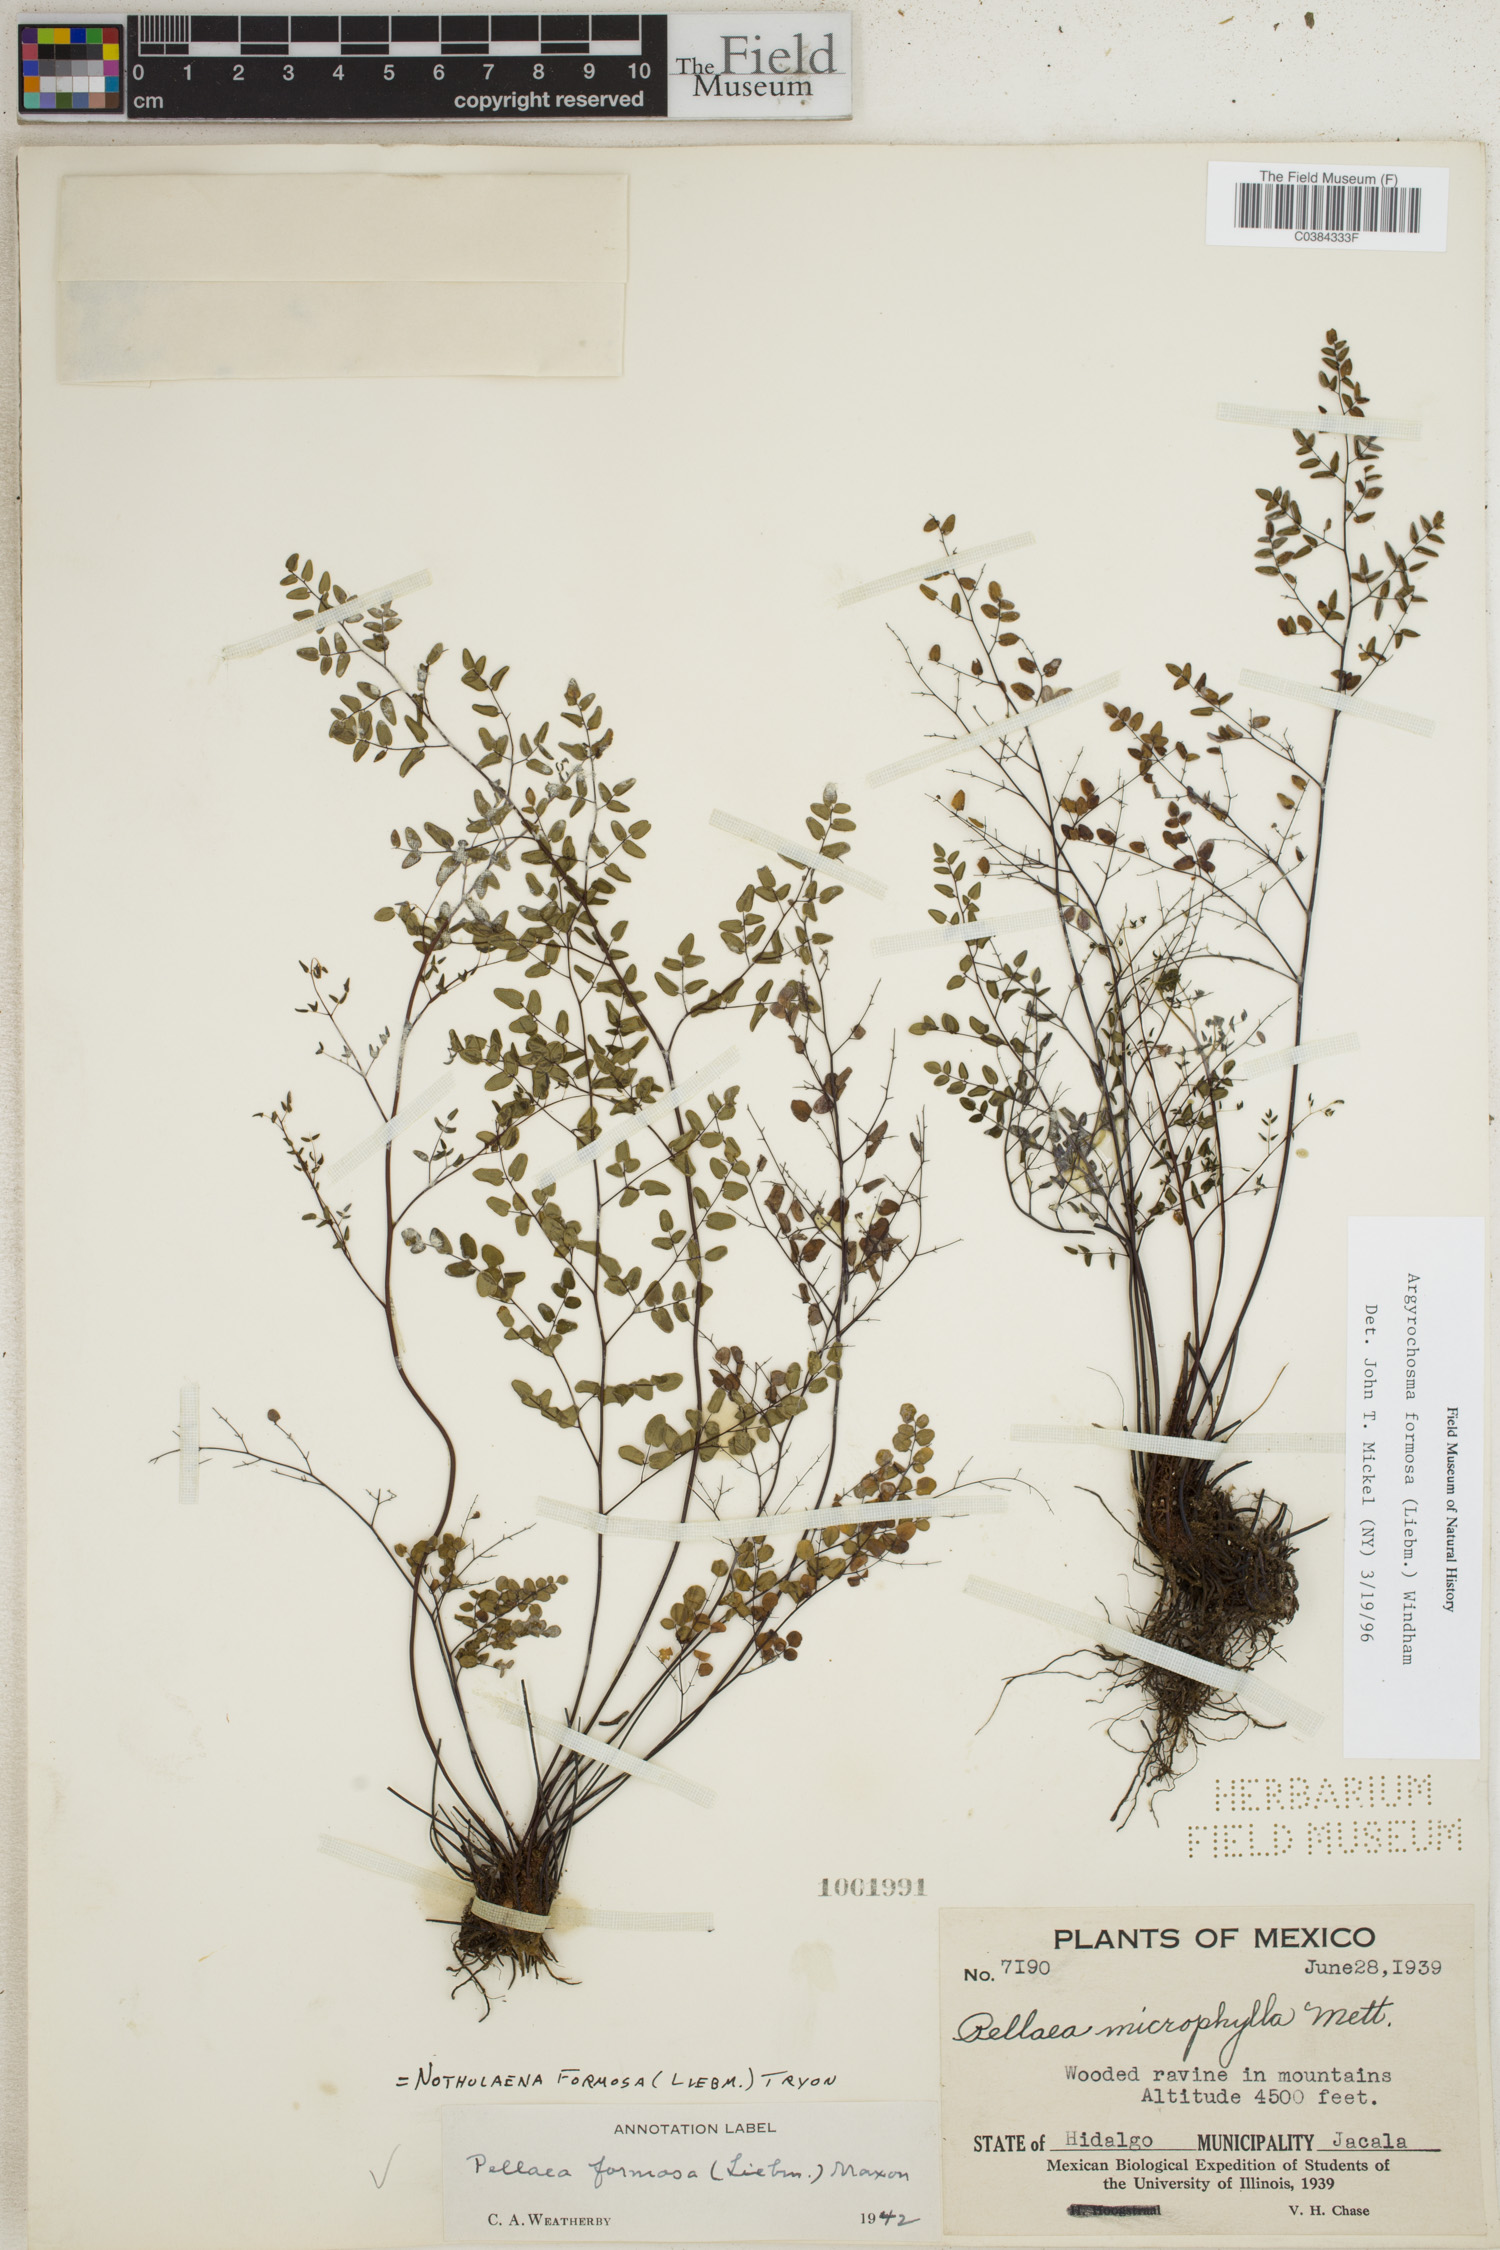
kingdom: Plantae
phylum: Tracheophyta
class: Polypodiopsida
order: Polypodiales
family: Pteridaceae
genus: Argyrochosma
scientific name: Argyrochosma formosa
